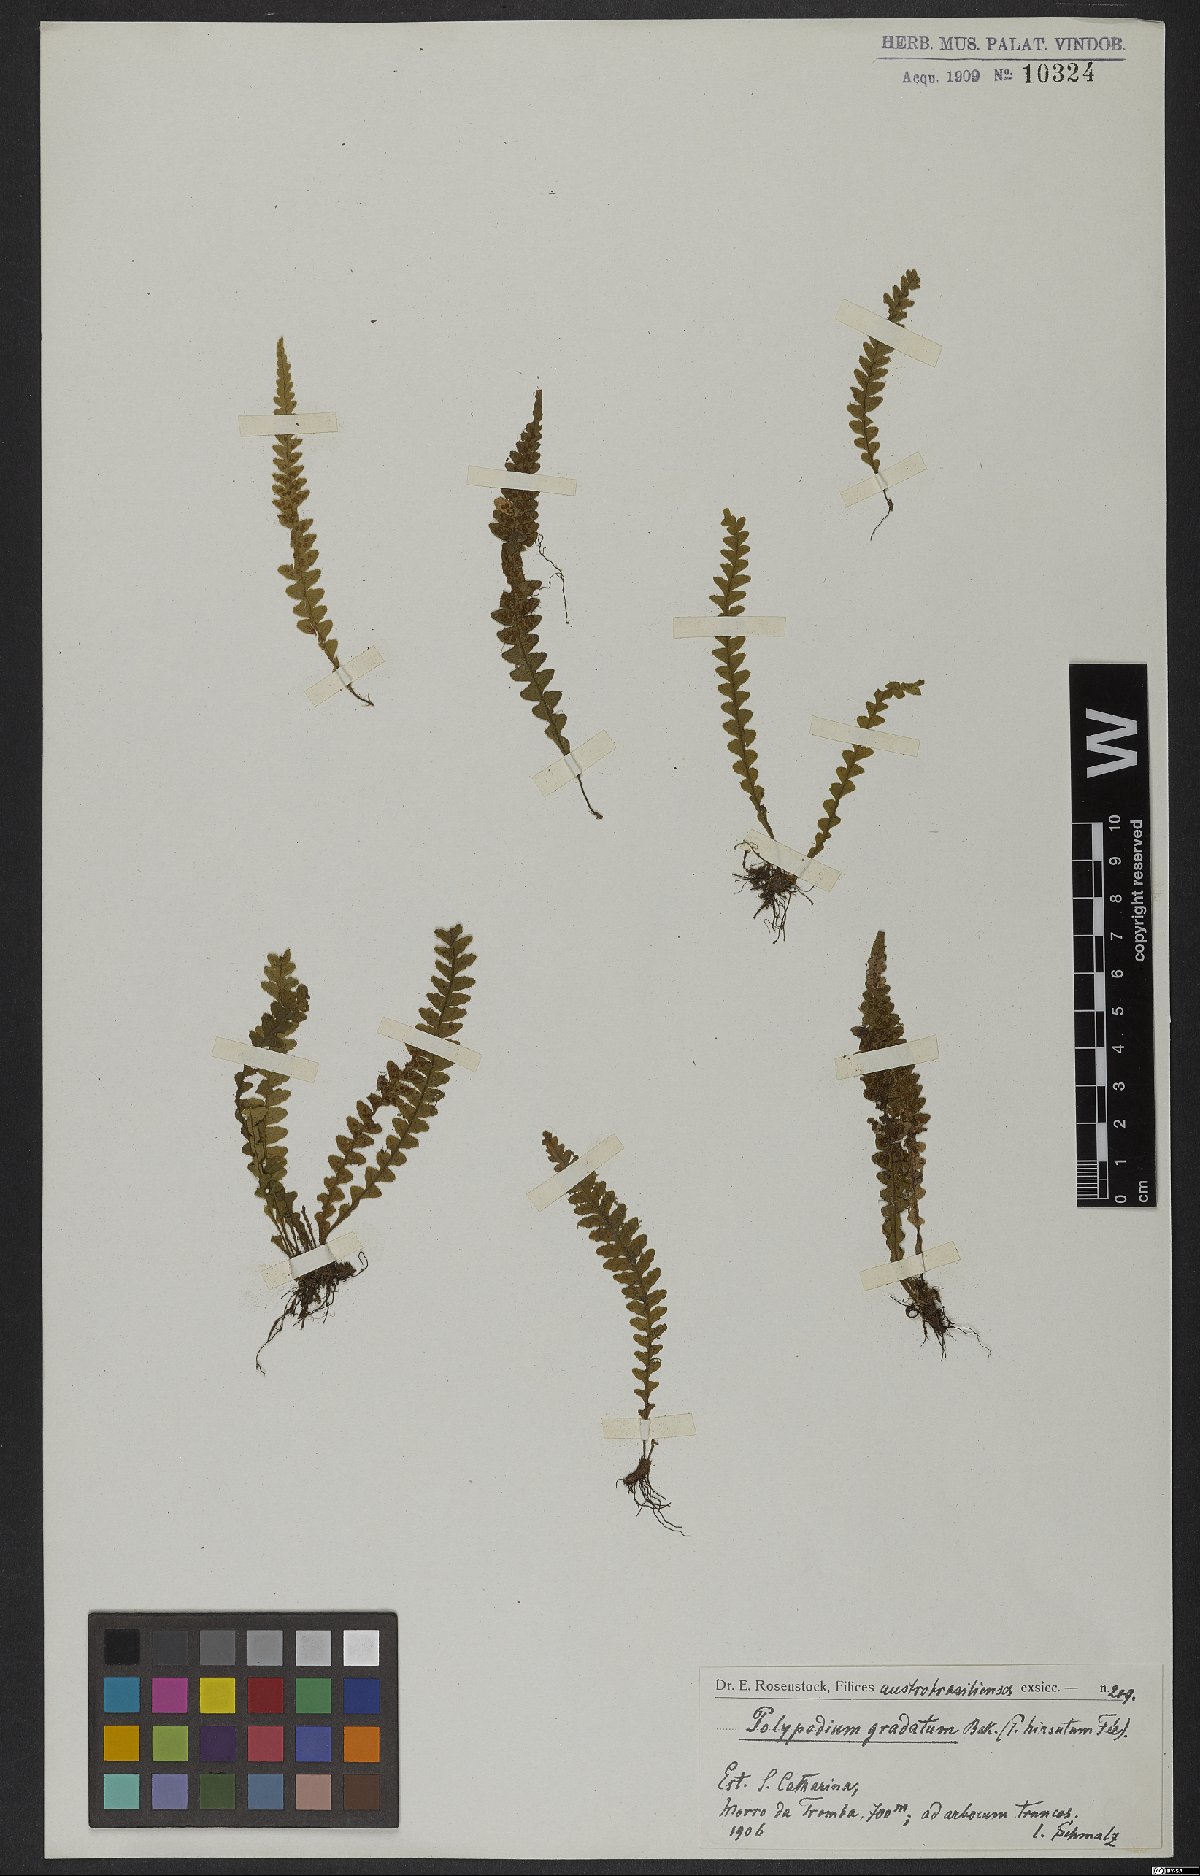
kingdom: Plantae
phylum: Tracheophyta
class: Polypodiopsida
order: Polypodiales
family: Polypodiaceae
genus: Moranopteris
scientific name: Moranopteris gradata
